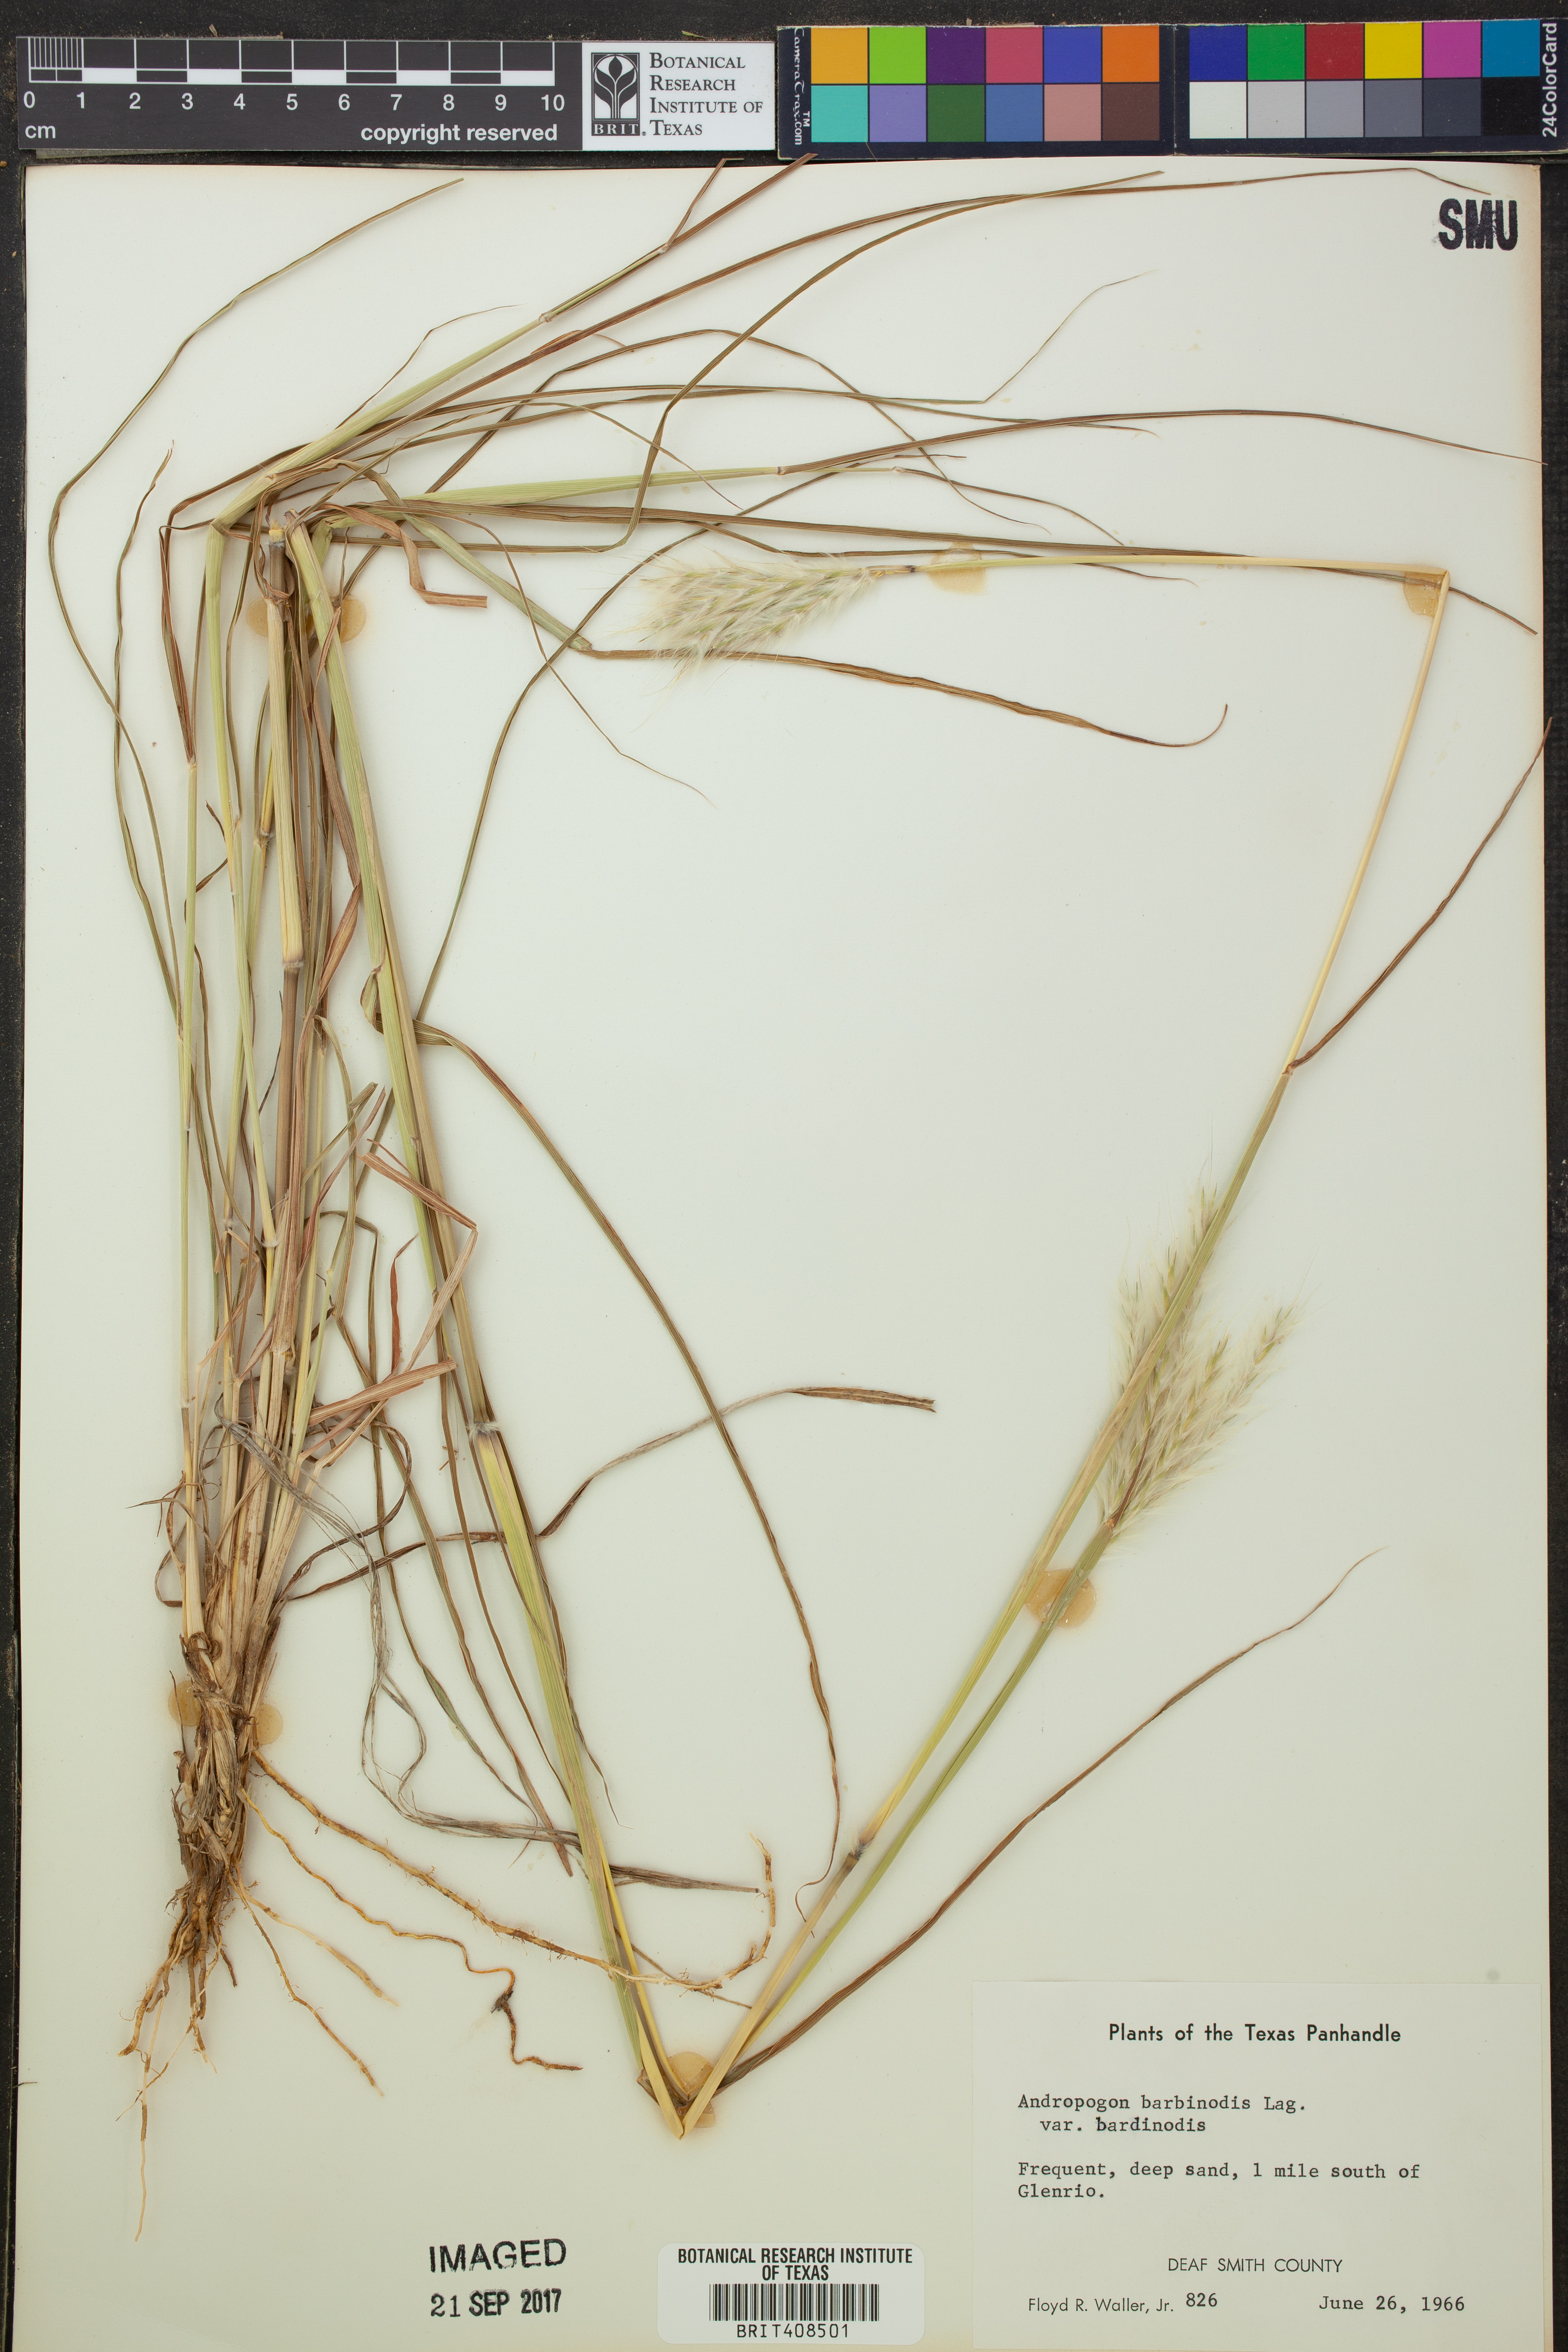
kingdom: Plantae
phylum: Tracheophyta
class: Liliopsida
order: Poales
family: Poaceae
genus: Bothriochloa
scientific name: Bothriochloa barbinodis
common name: Cane bluestem
